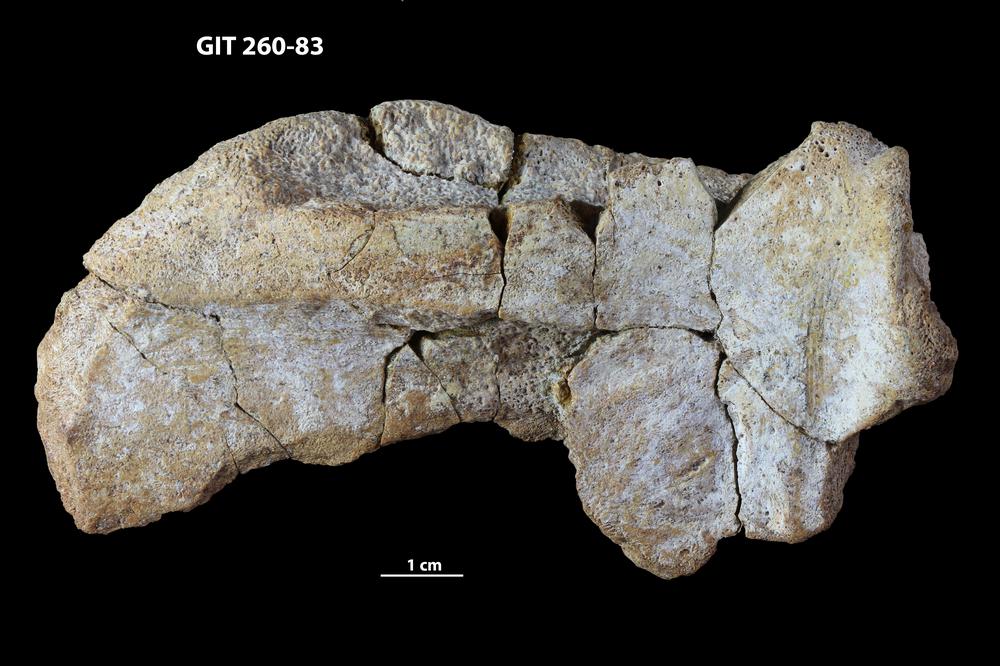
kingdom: Animalia
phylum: Chordata
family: Homostiidae
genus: Homostius
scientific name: Homostius
